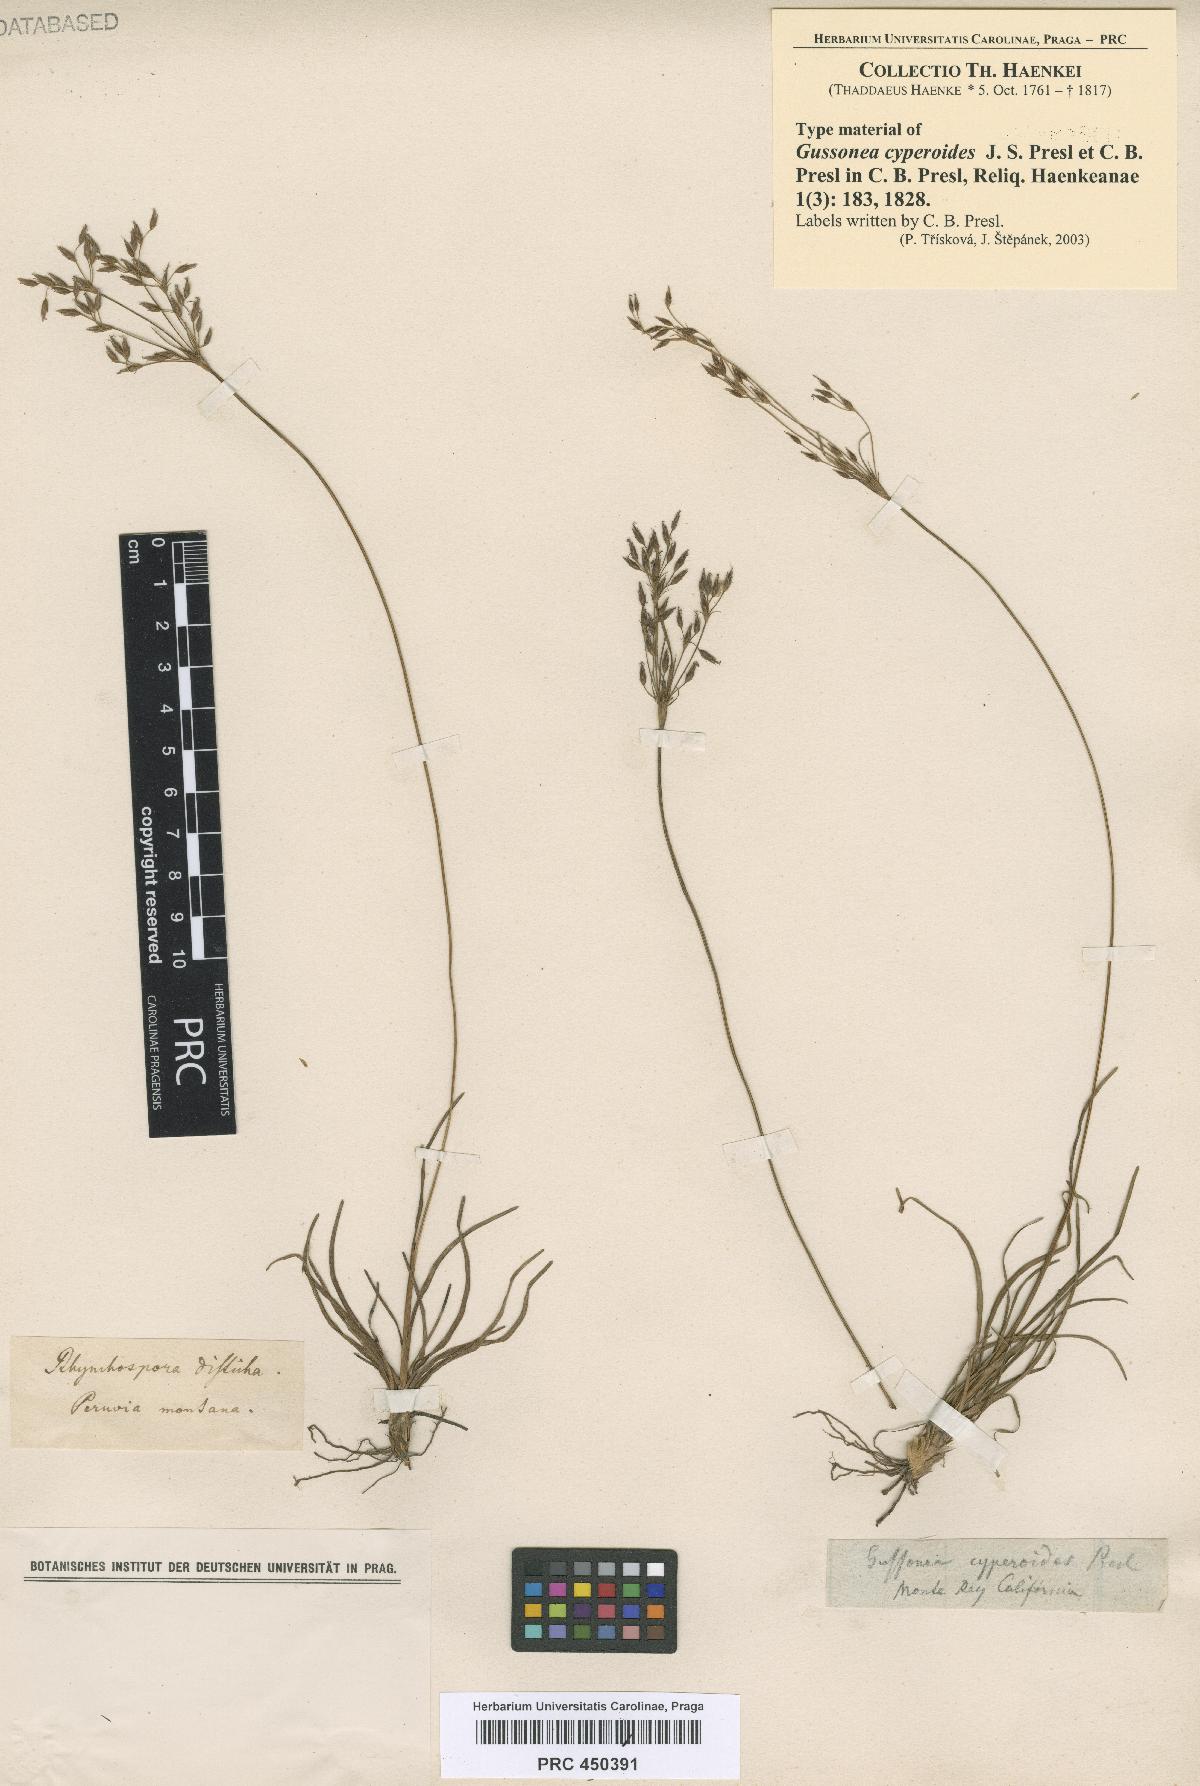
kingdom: Plantae
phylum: Tracheophyta
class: Liliopsida
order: Poales
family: Cyperaceae
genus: Fimbristylis
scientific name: Fimbristylis fusca
